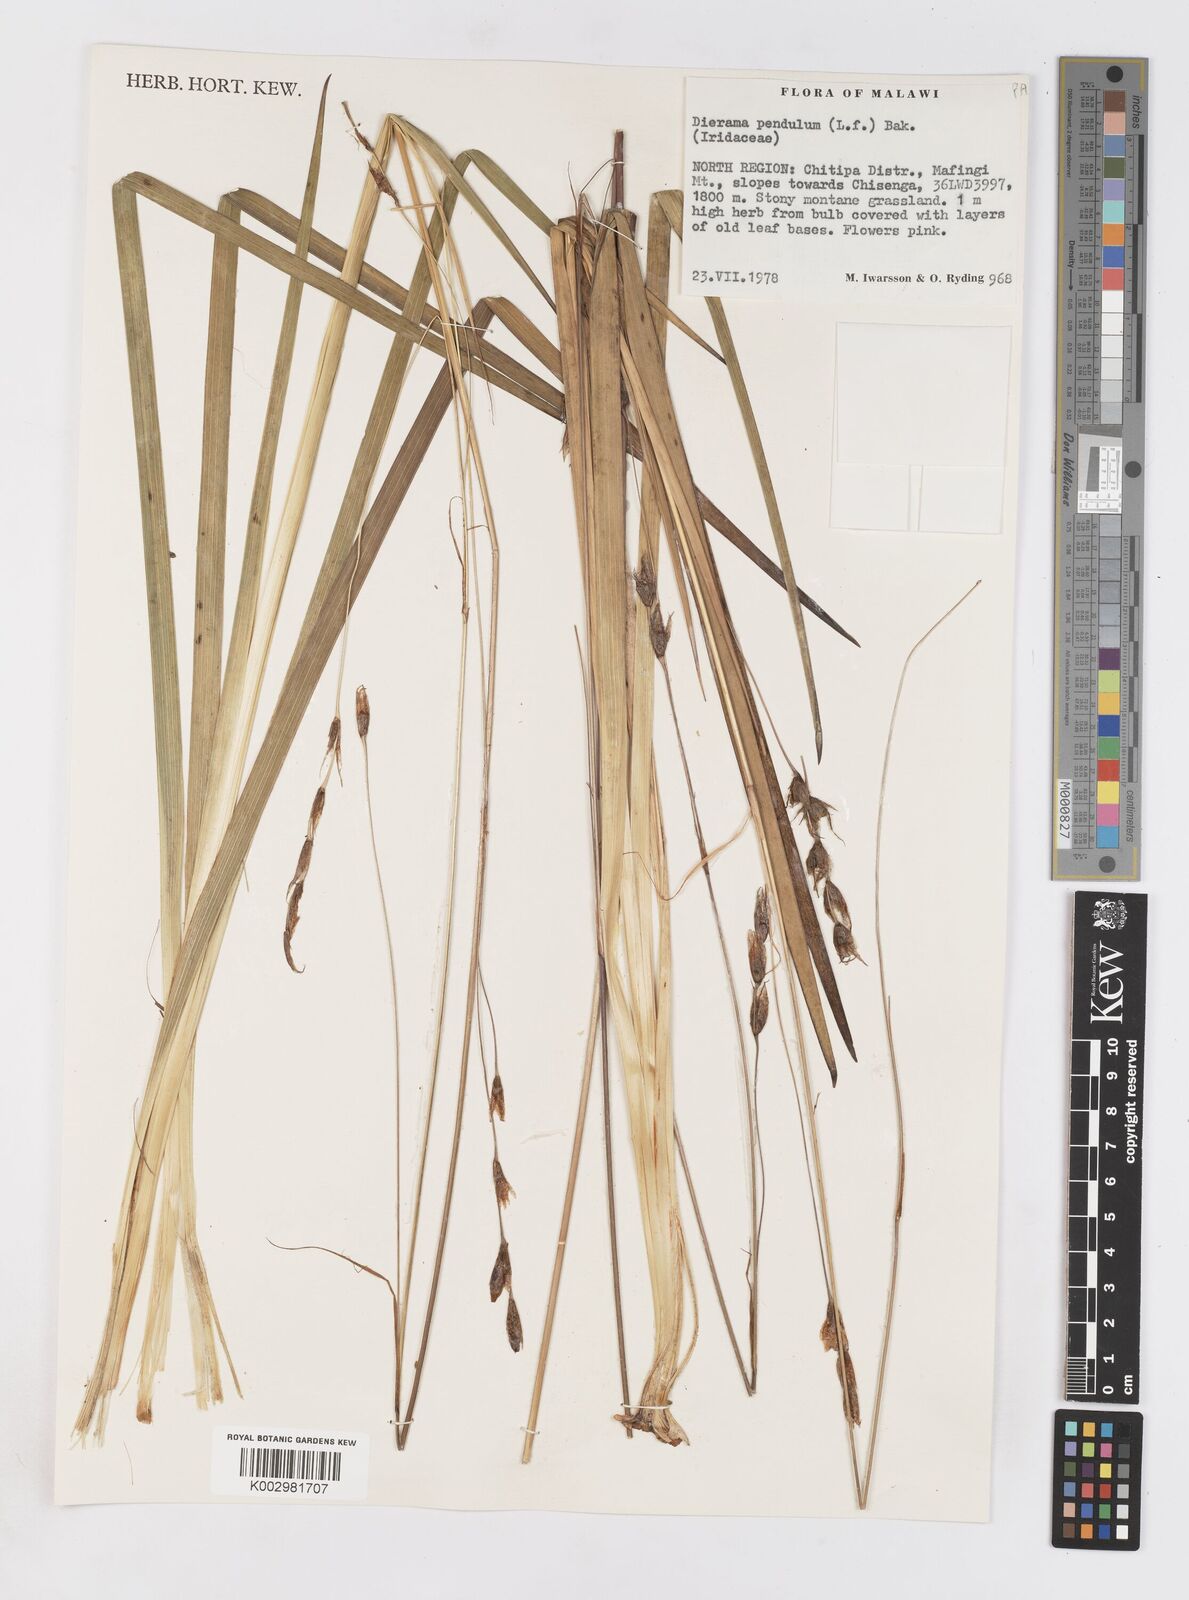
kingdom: Plantae
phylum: Tracheophyta
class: Liliopsida
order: Asparagales
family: Iridaceae
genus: Dierama
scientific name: Dierama cupuliflorum
